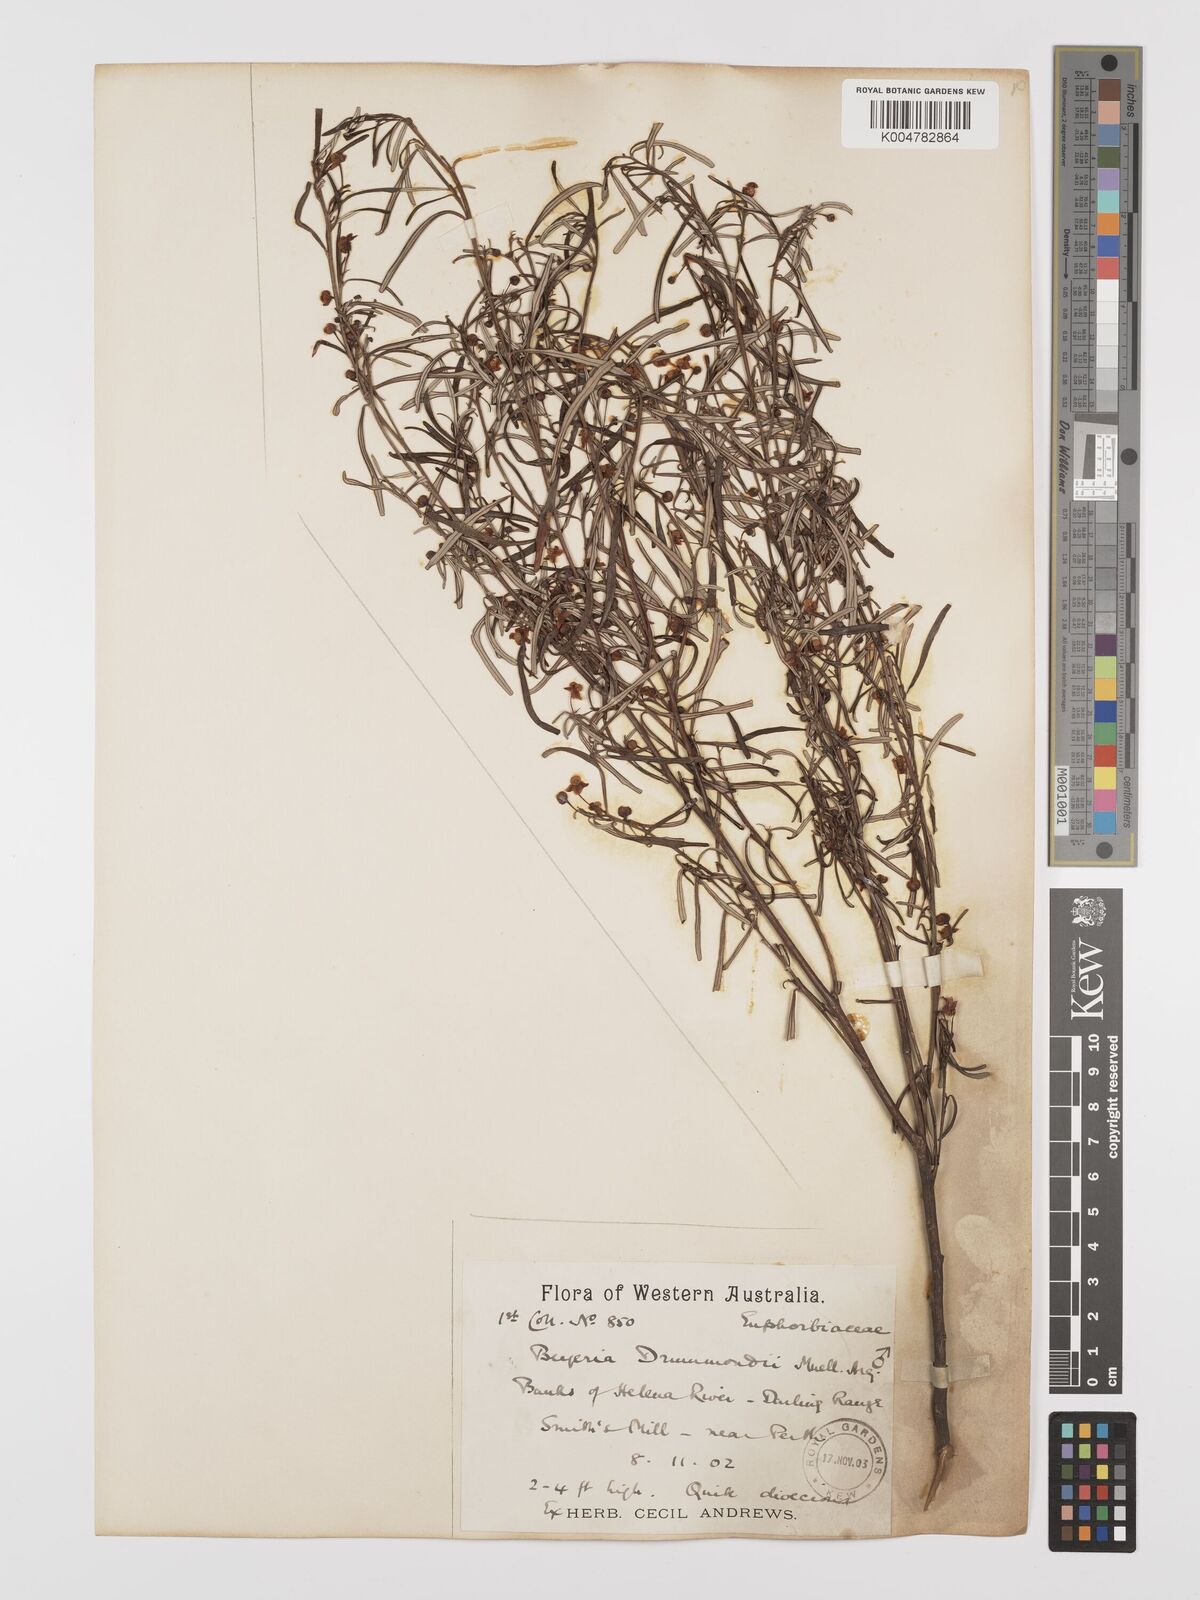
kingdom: Plantae
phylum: Tracheophyta
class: Magnoliopsida
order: Malpighiales
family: Euphorbiaceae
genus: Beyeria
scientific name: Beyeria lechenaultii
